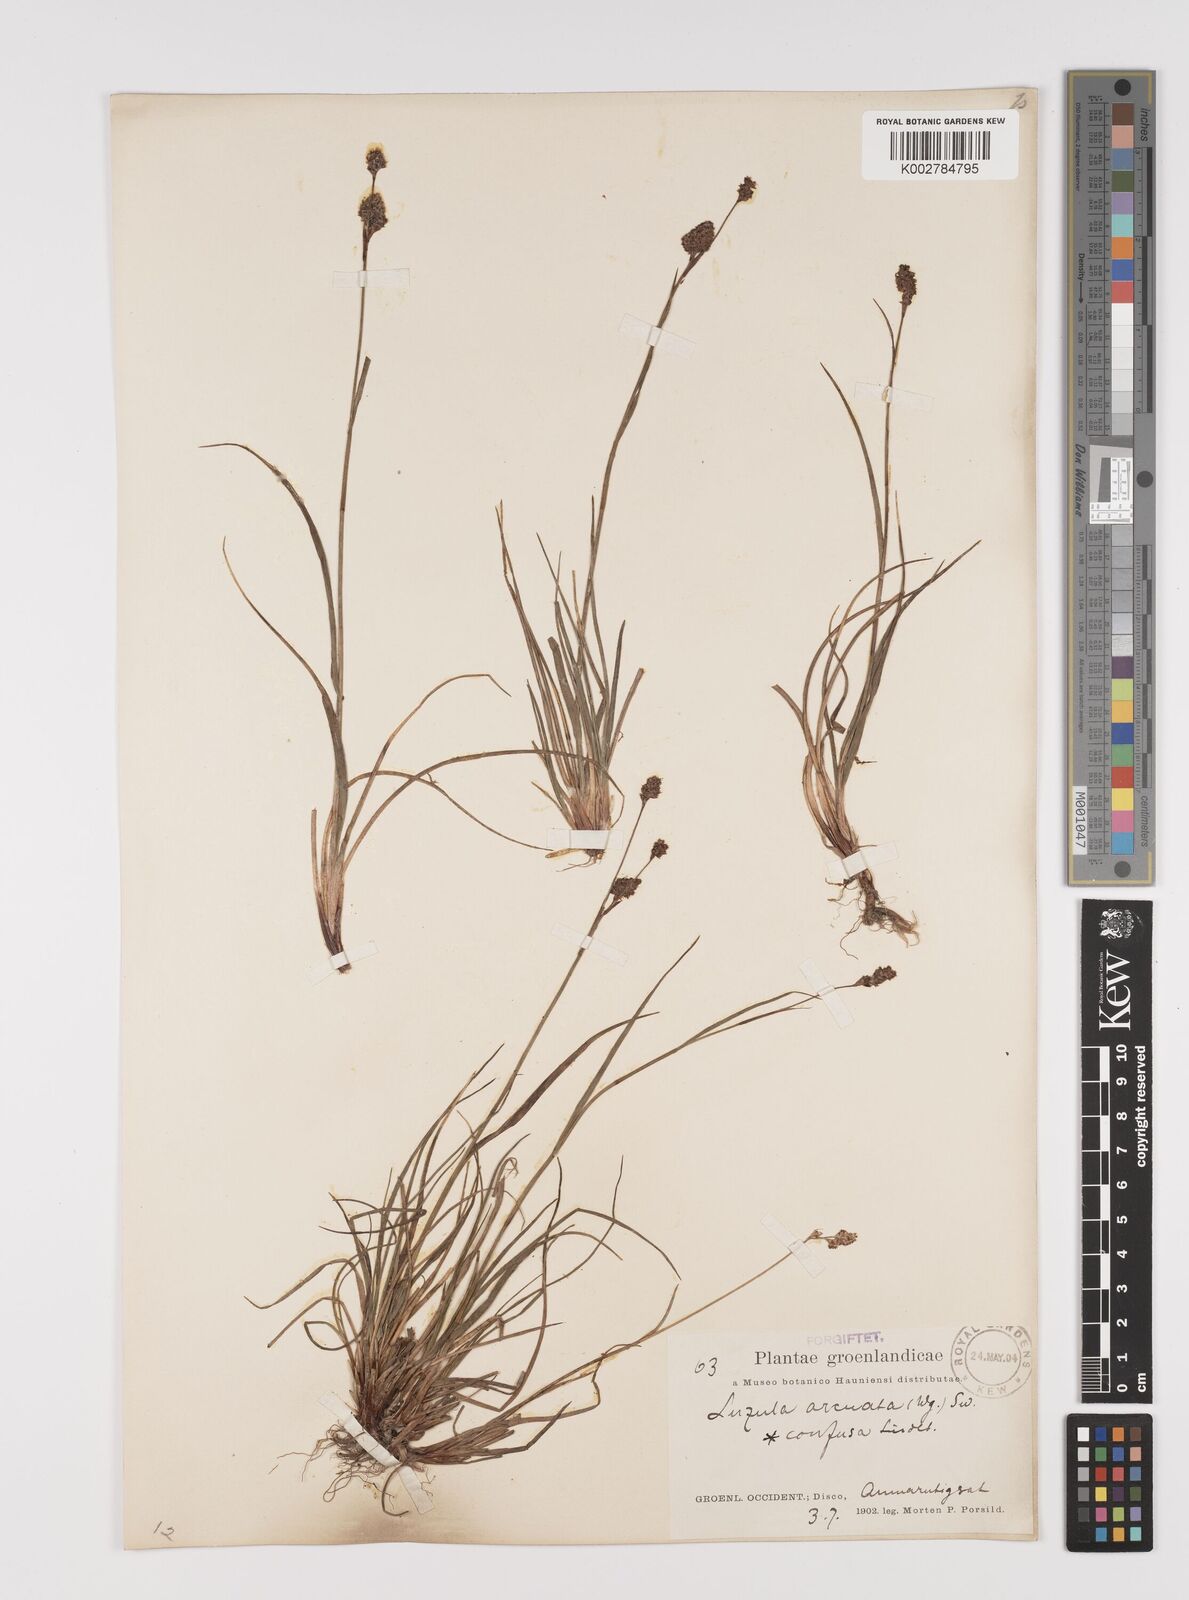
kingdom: Plantae
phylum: Tracheophyta
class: Liliopsida
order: Poales
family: Juncaceae
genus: Luzula
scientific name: Luzula confusa
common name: Northern wood rush
